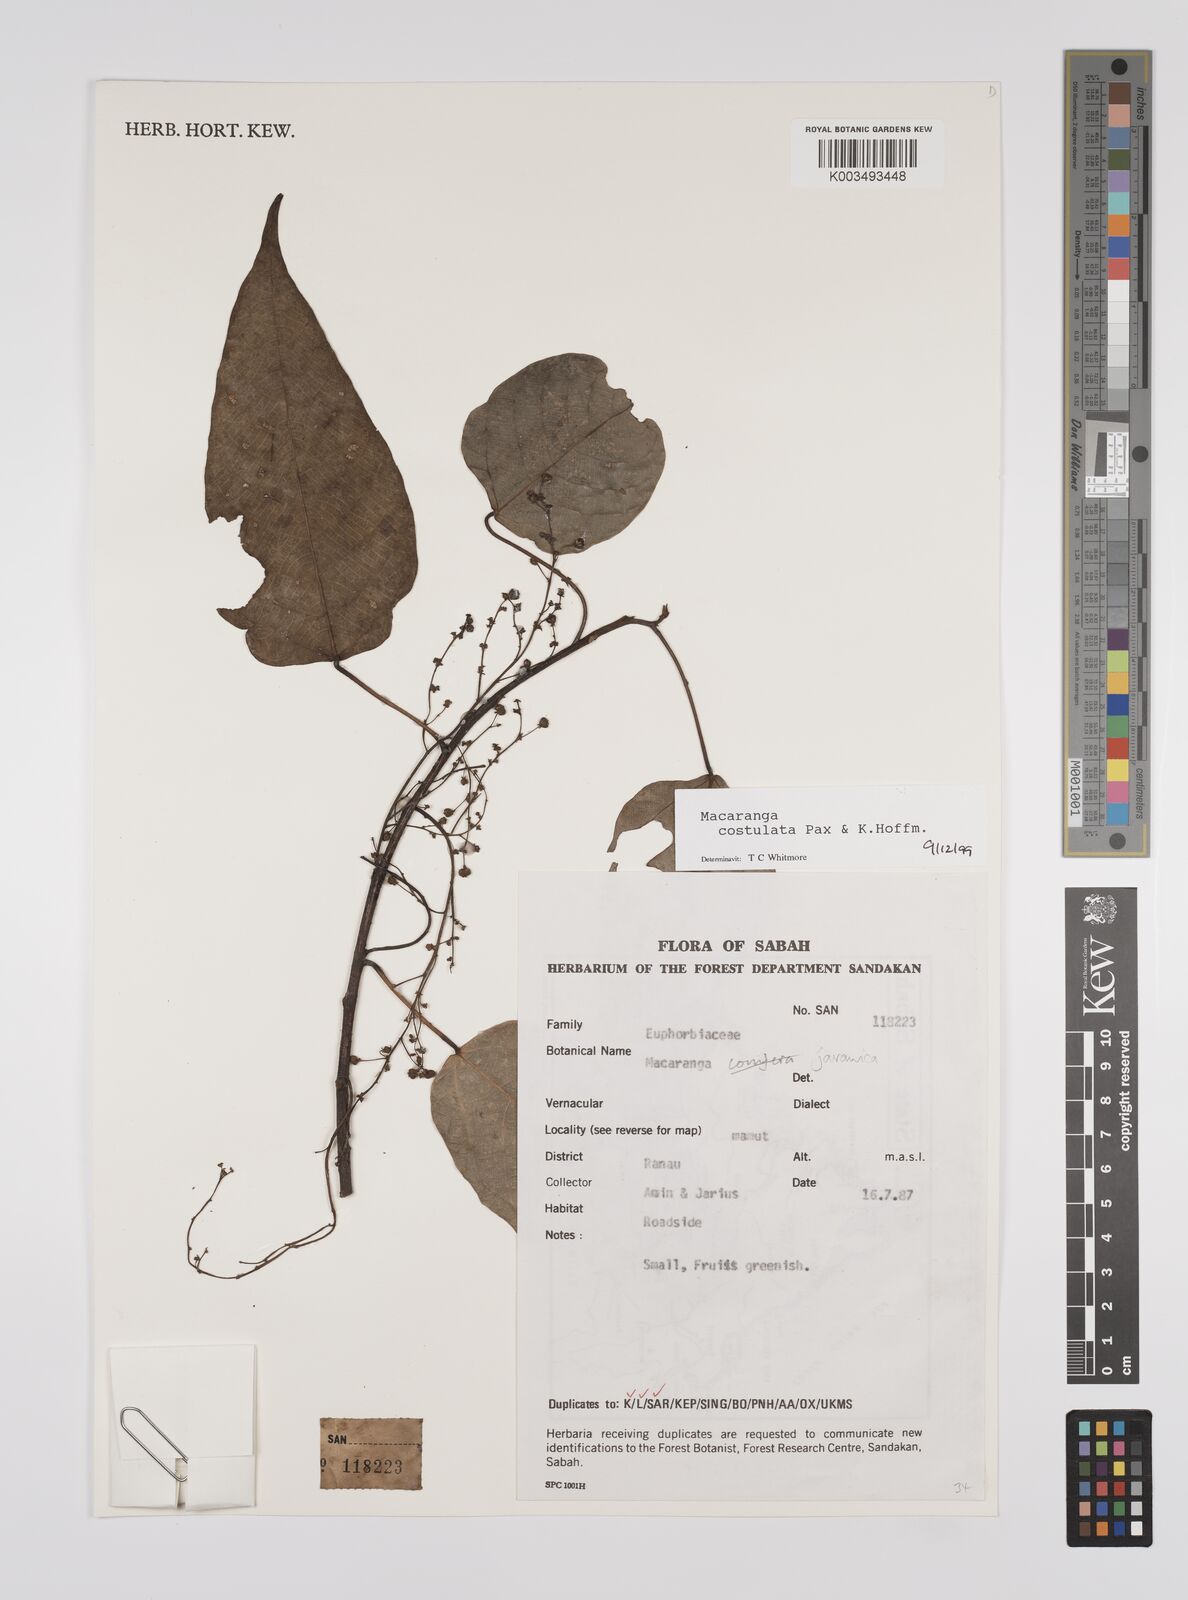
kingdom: Plantae
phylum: Tracheophyta
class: Magnoliopsida
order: Malpighiales
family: Euphorbiaceae
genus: Macaranga
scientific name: Macaranga costulata
